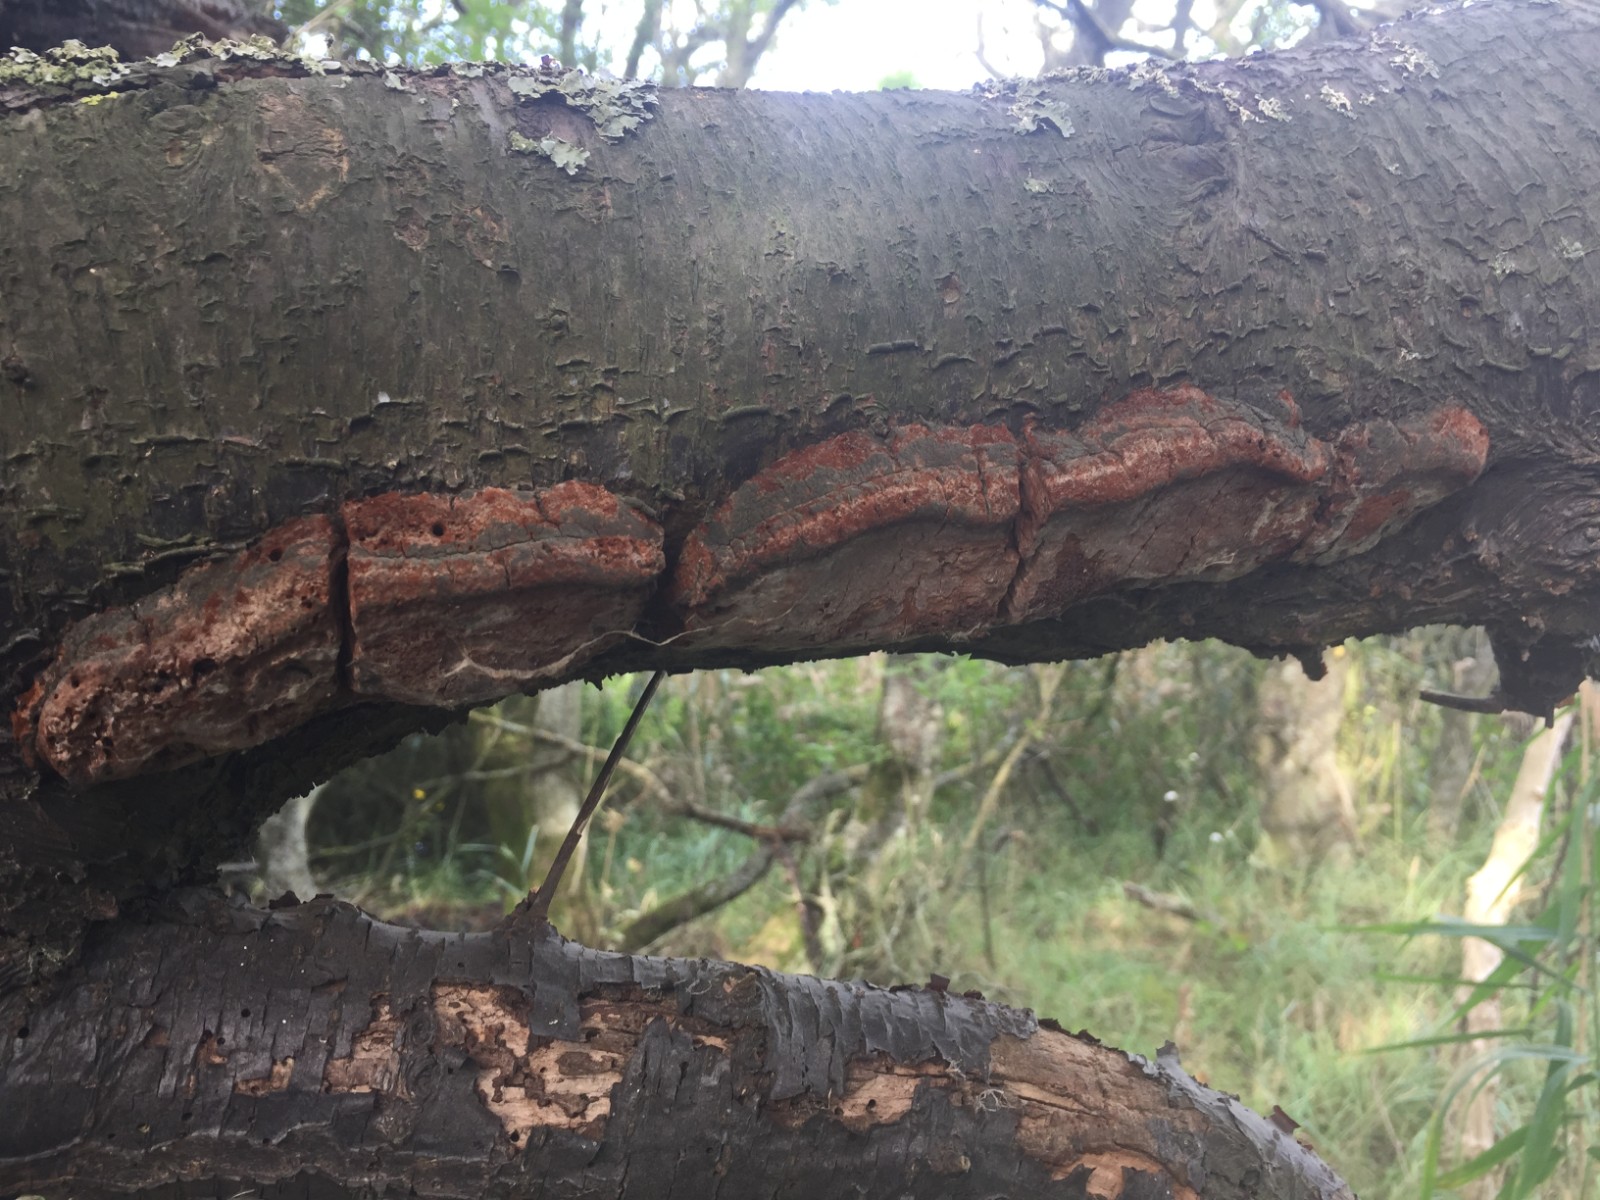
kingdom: Fungi
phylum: Basidiomycota
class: Agaricomycetes
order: Hymenochaetales
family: Hymenochaetaceae
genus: Phellinus
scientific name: Phellinus pomaceus
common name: blomme-ildporesvamp
